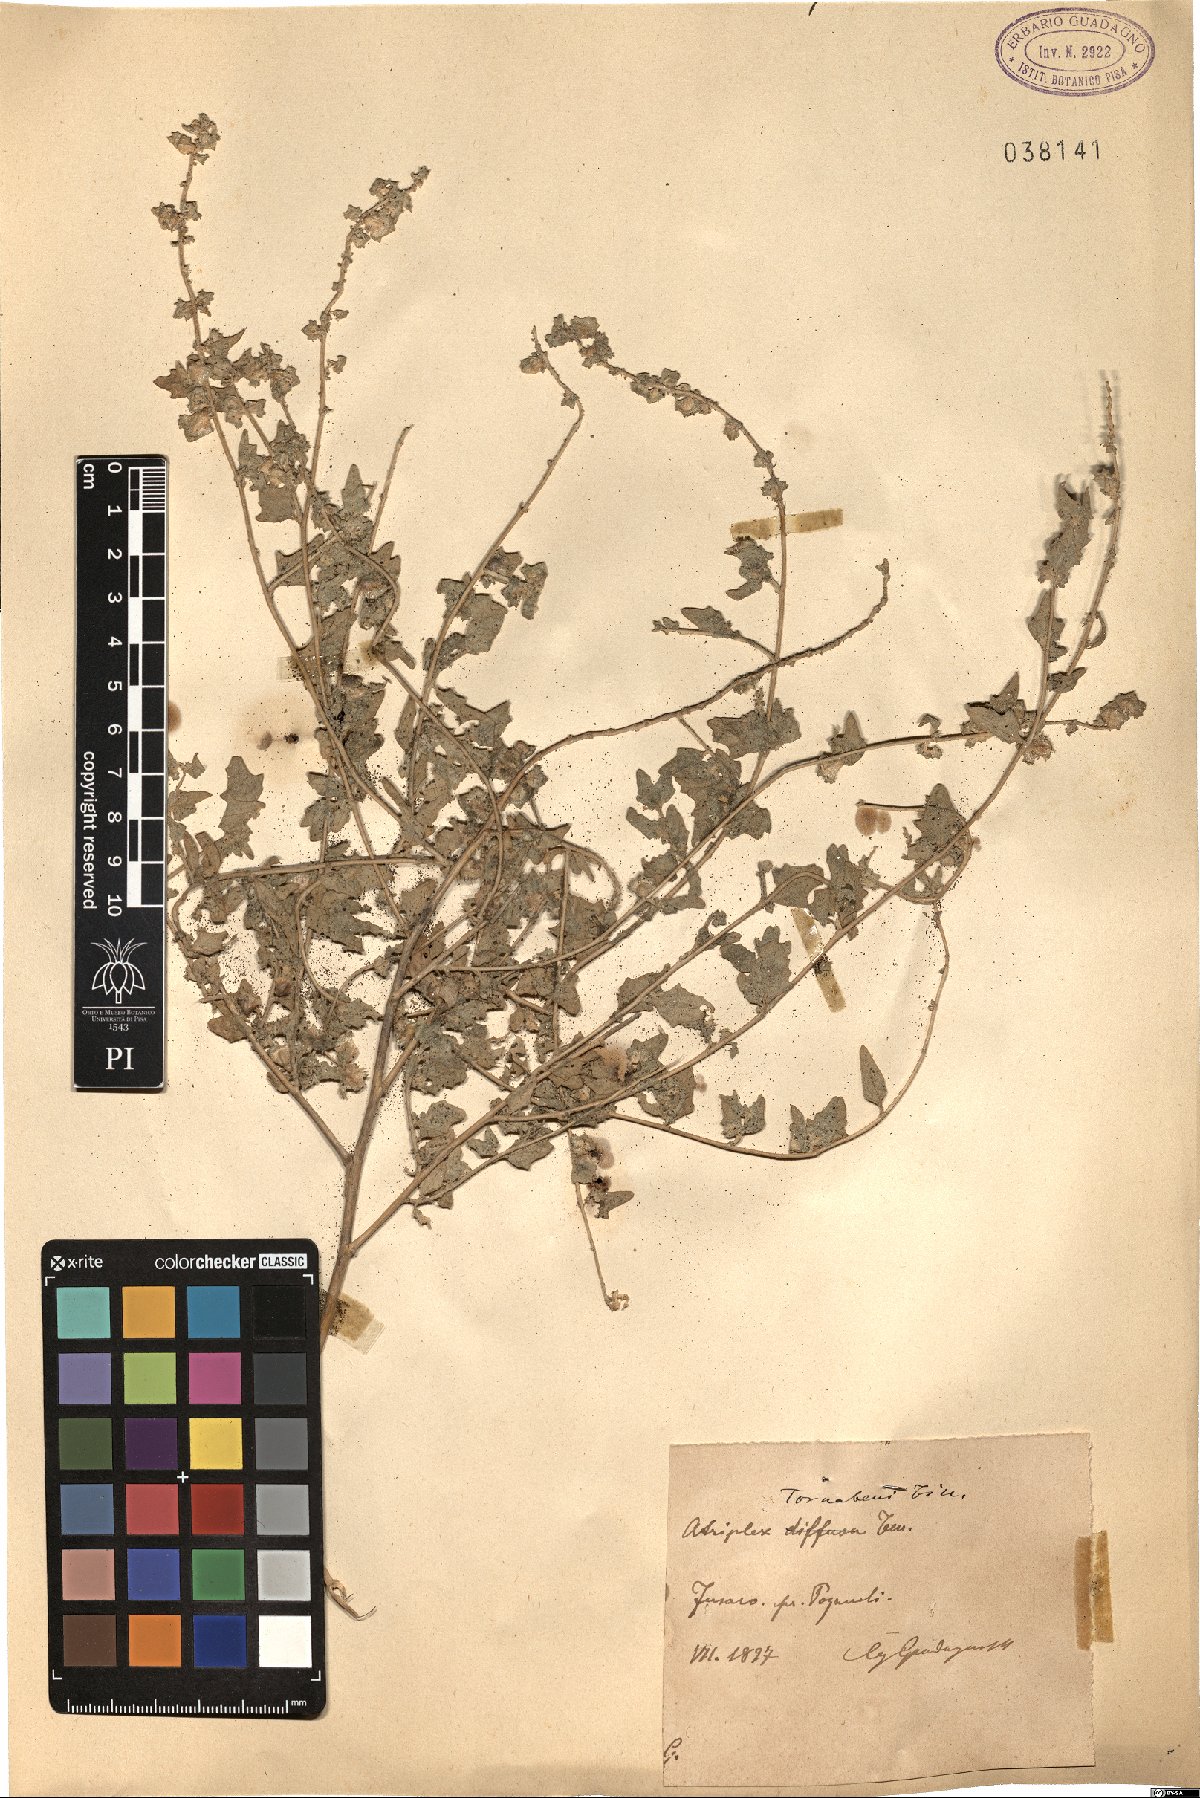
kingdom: Plantae
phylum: Tracheophyta
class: Magnoliopsida
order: Caryophyllales
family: Amaranthaceae
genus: Atriplex
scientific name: Atriplex tornabenei
